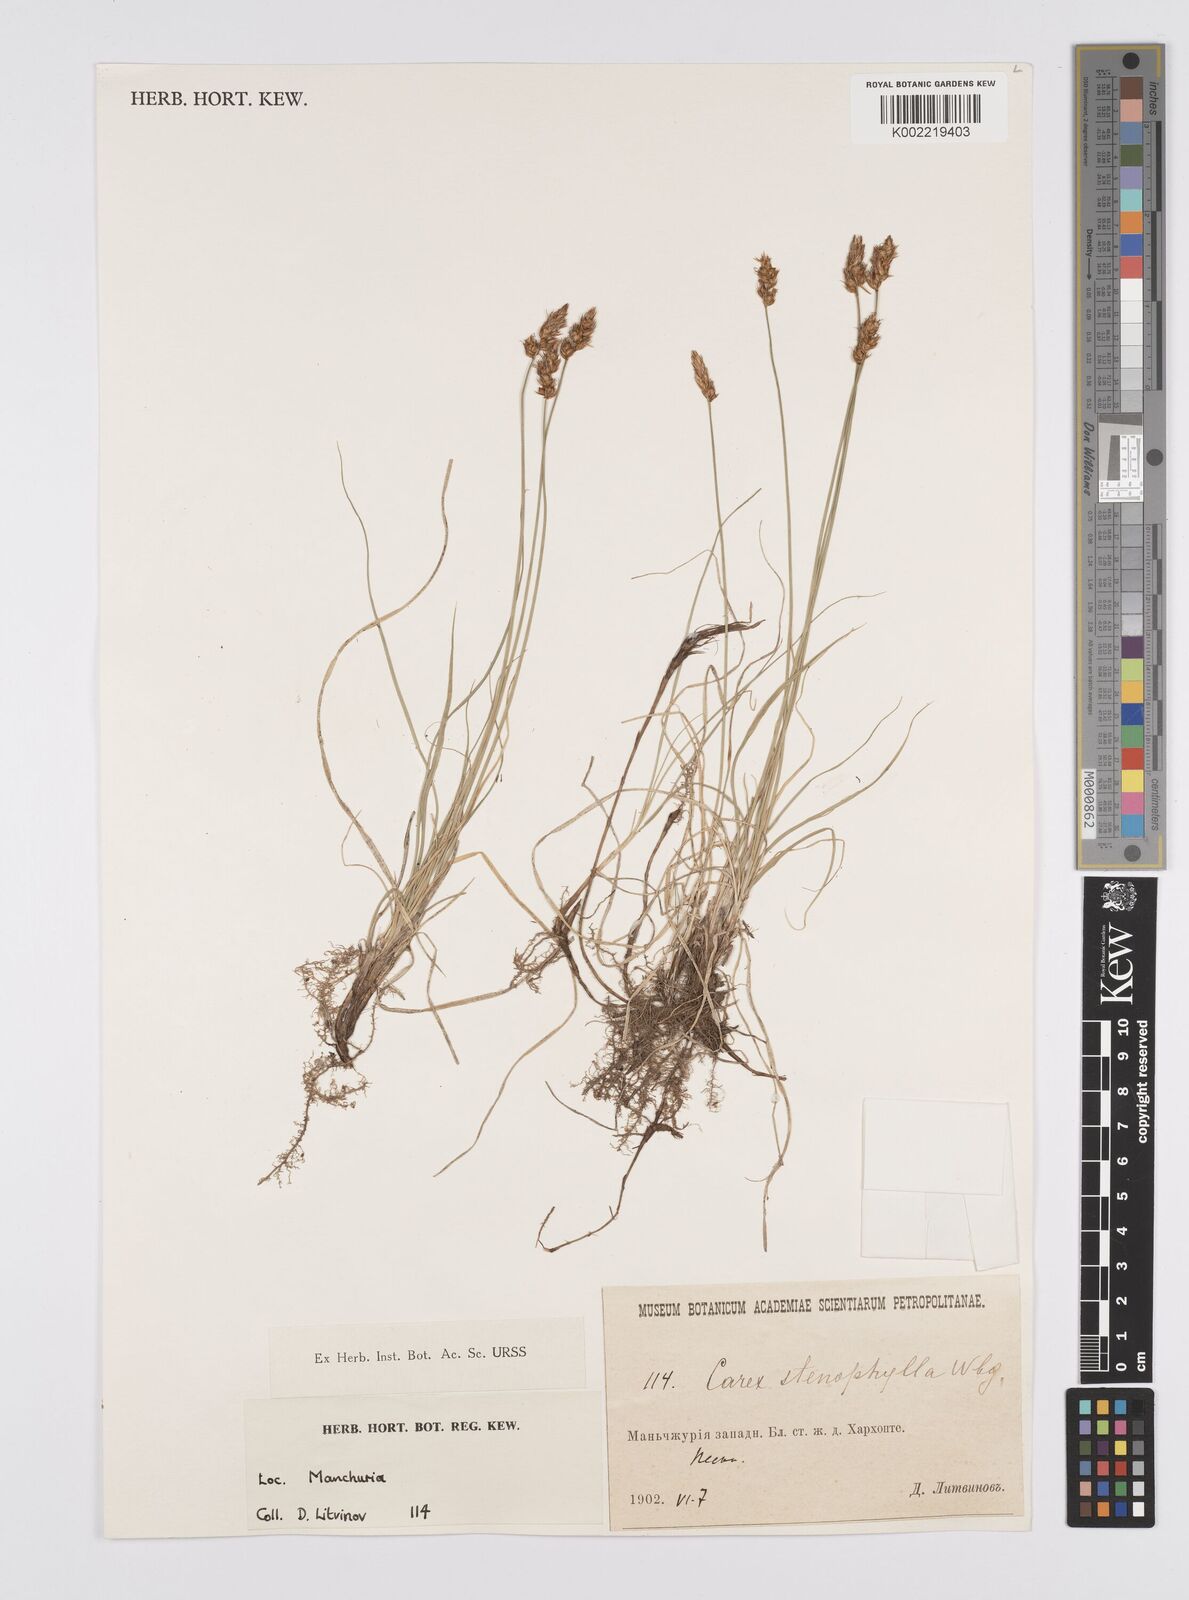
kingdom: Plantae
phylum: Tracheophyta
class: Liliopsida
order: Poales
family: Cyperaceae
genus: Carex
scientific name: Carex stenophylla
